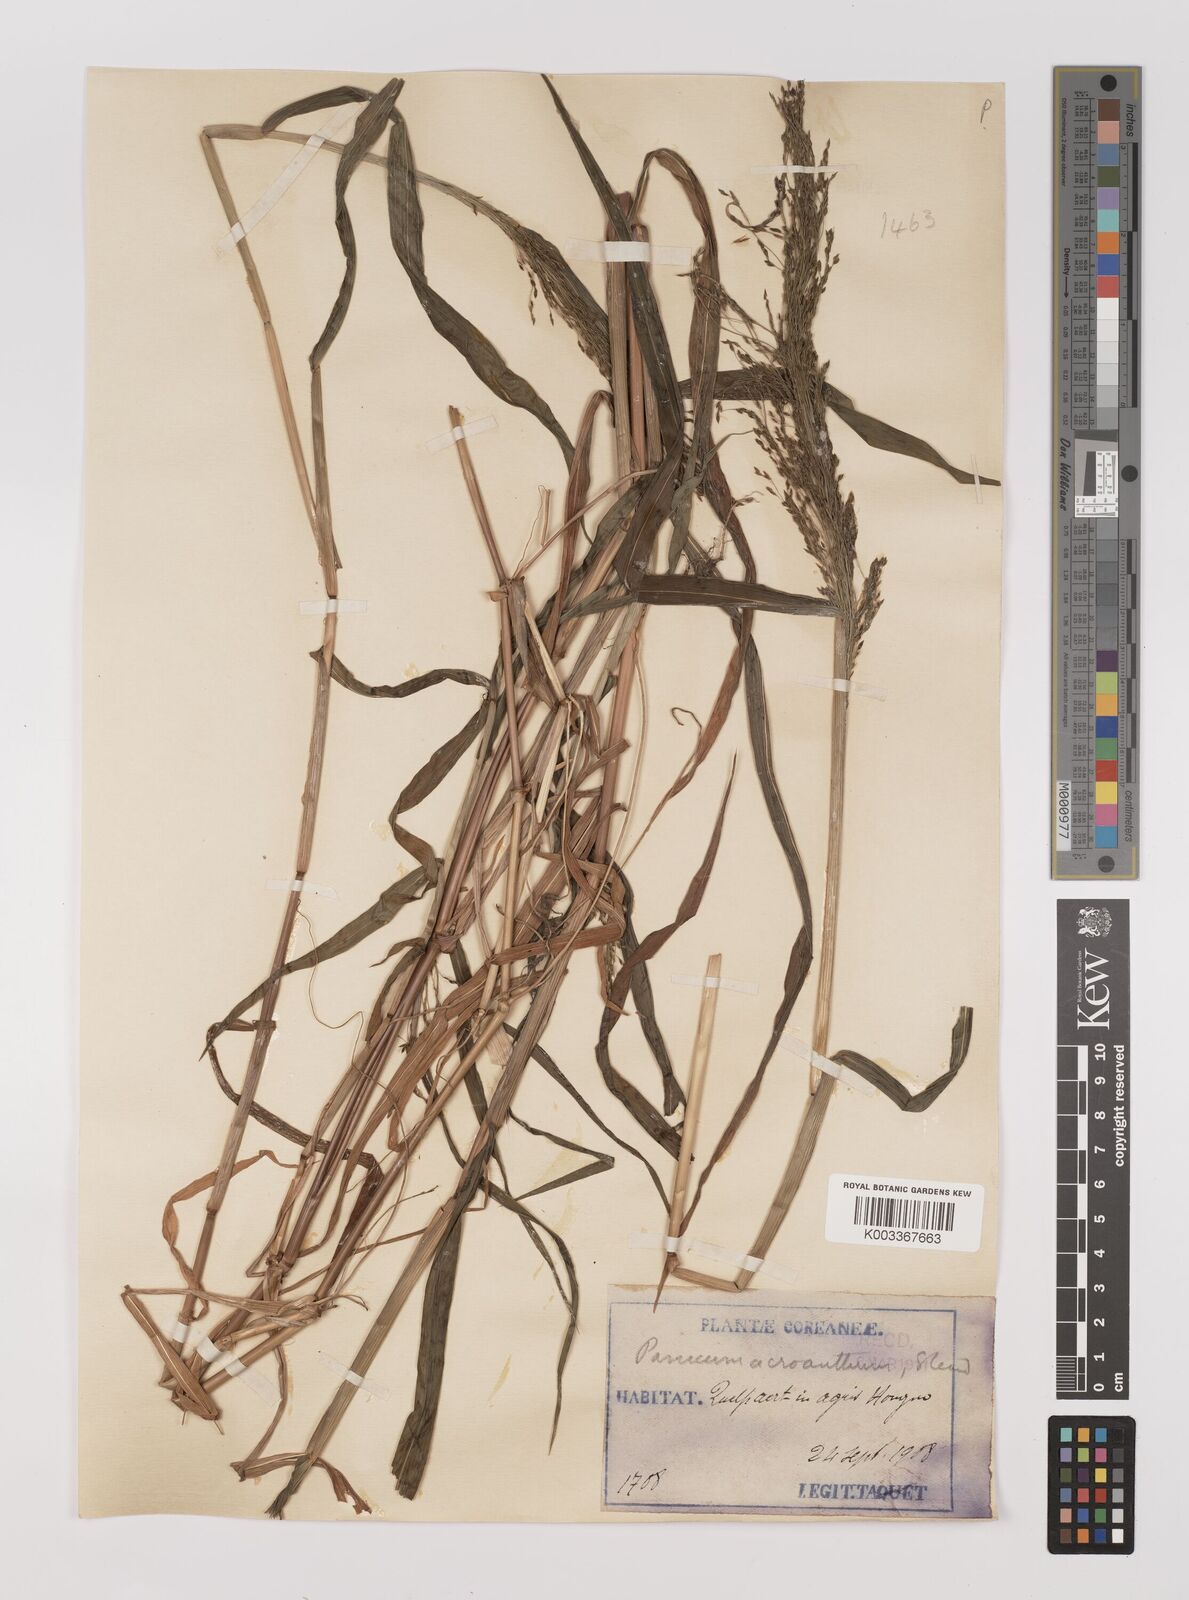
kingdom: Plantae
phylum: Tracheophyta
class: Liliopsida
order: Poales
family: Poaceae
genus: Panicum
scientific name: Panicum bisulcatum
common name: Japanese panicgrass
